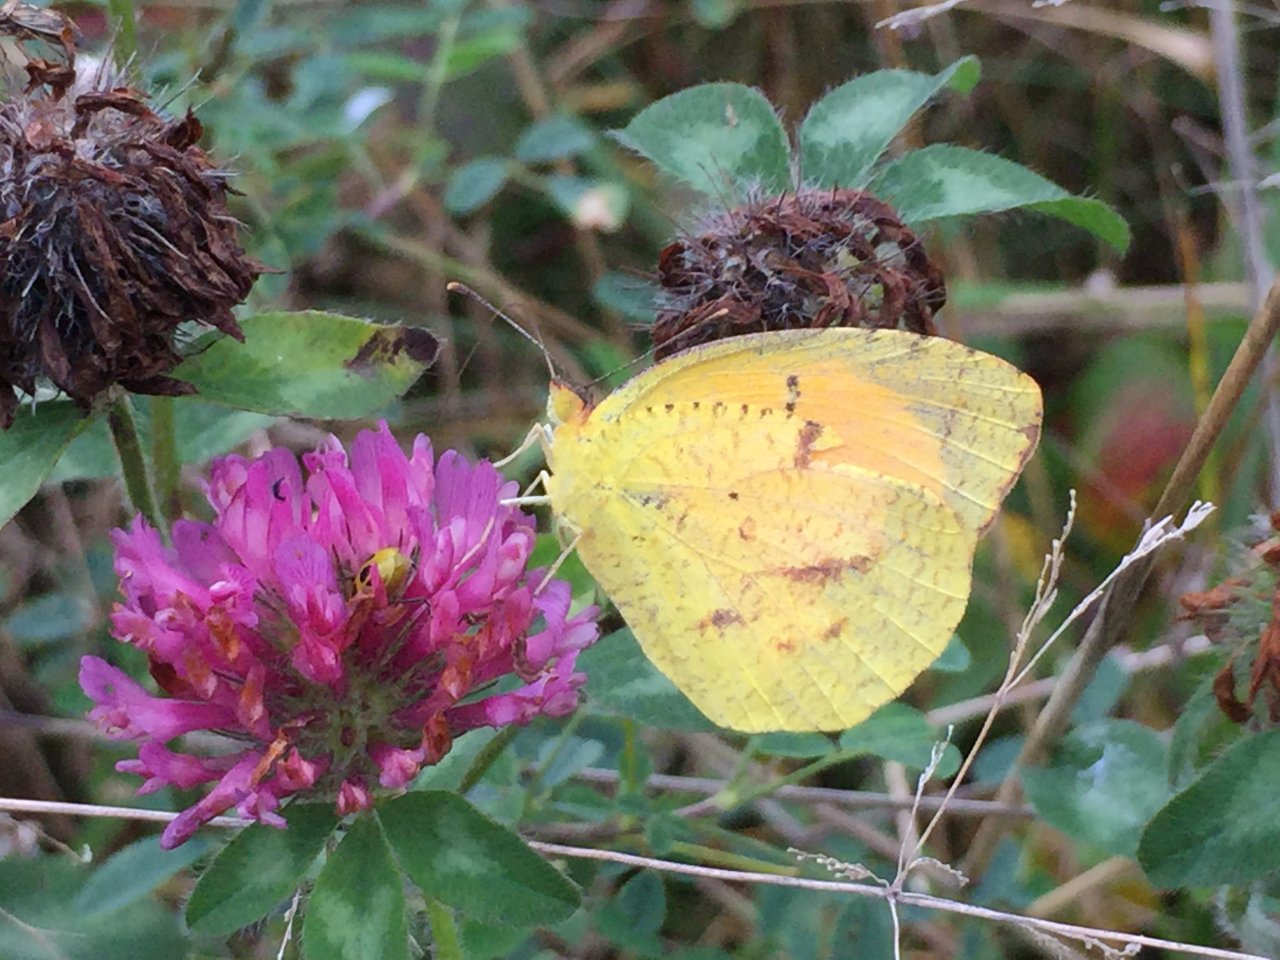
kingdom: Animalia
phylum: Arthropoda
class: Insecta
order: Lepidoptera
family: Pieridae
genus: Abaeis
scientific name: Abaeis nicippe
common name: Sleepy Orange
